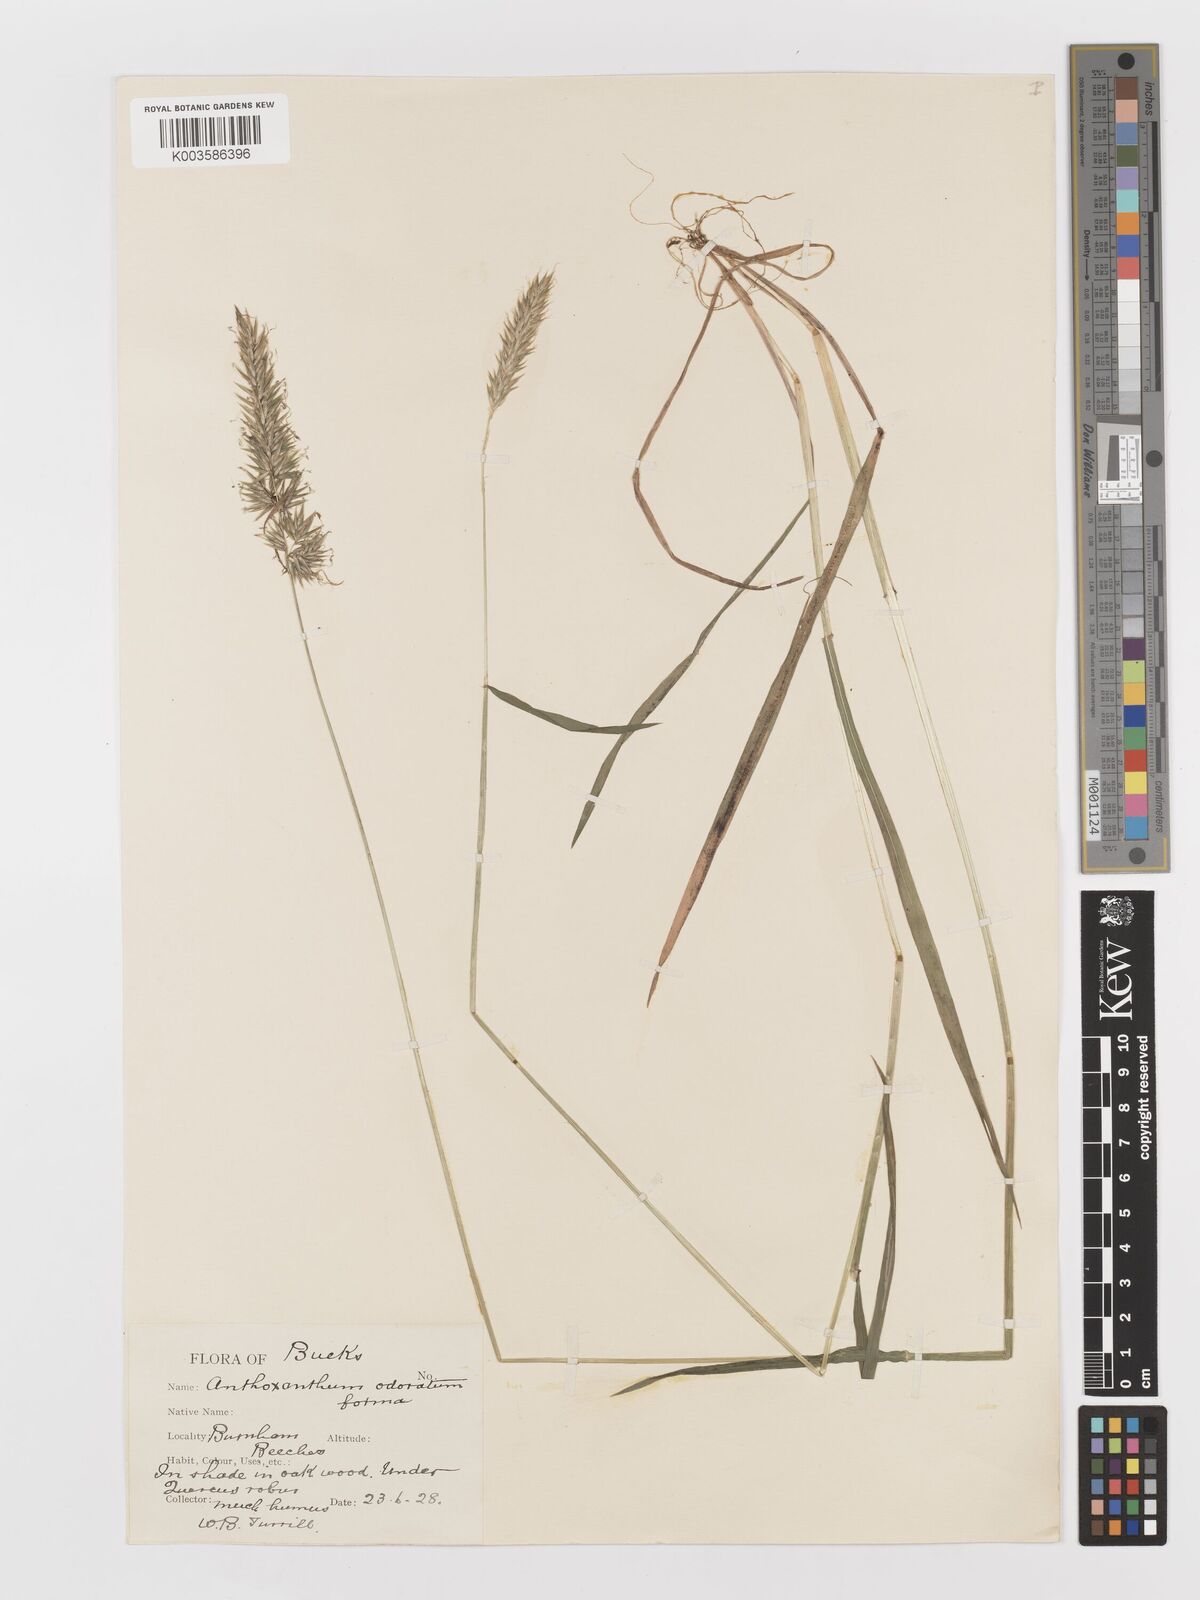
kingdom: Plantae
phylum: Tracheophyta
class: Liliopsida
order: Poales
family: Poaceae
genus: Anthoxanthum
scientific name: Anthoxanthum odoratum
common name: Sweet vernalgrass
